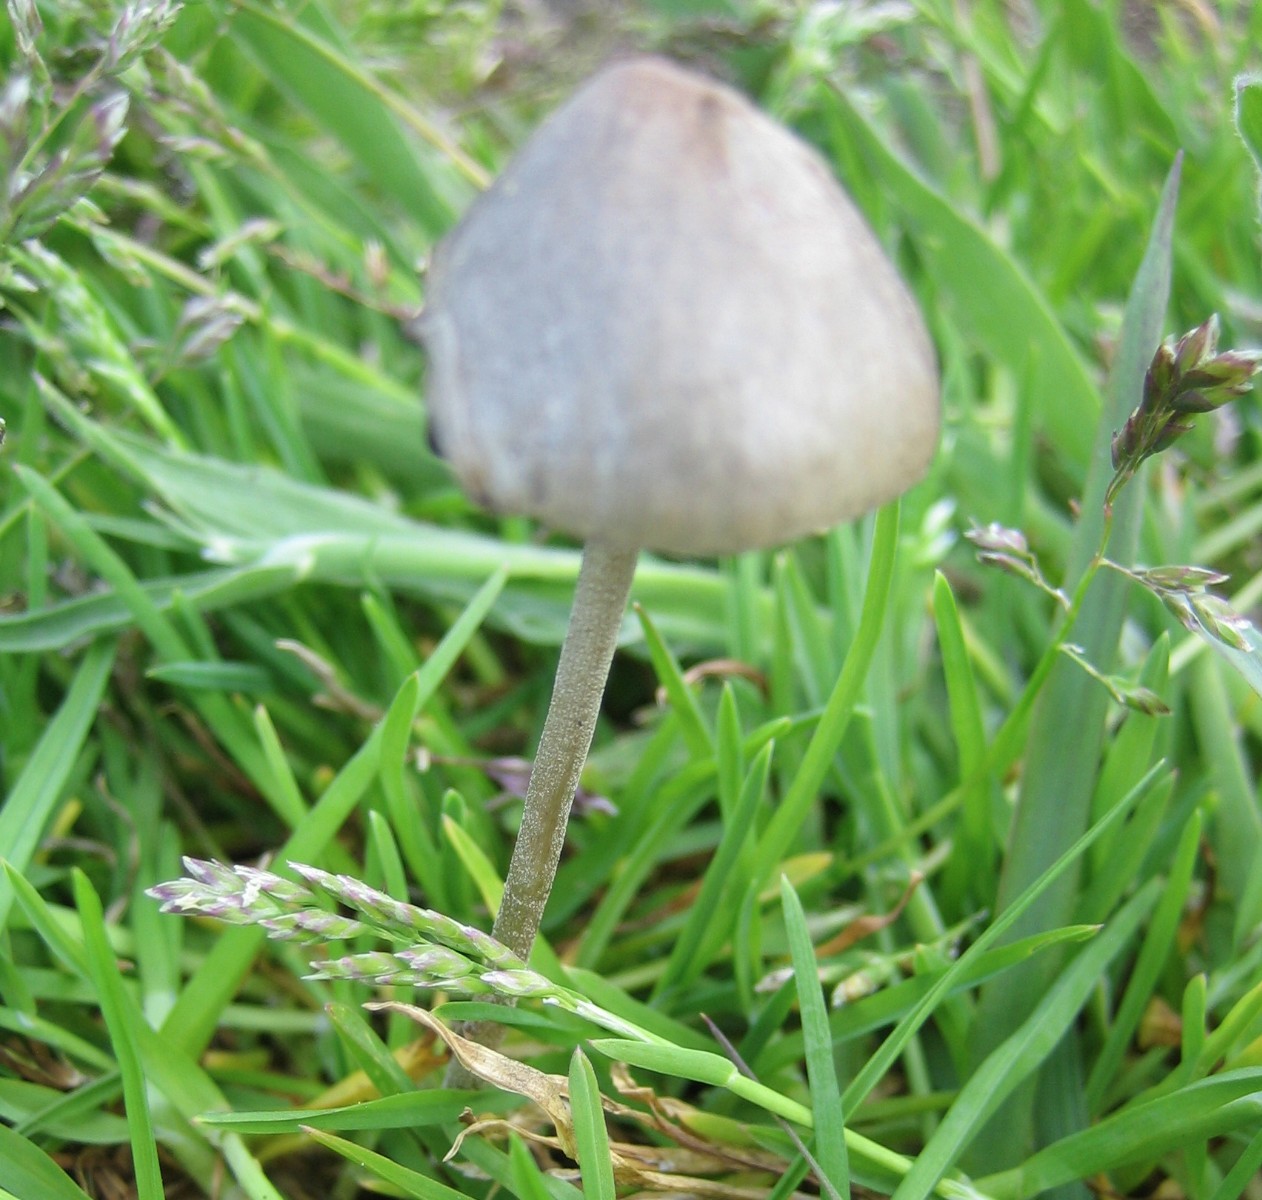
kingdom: Fungi
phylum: Basidiomycota
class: Agaricomycetes
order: Agaricales
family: Bolbitiaceae
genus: Panaeolus
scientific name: Panaeolus
